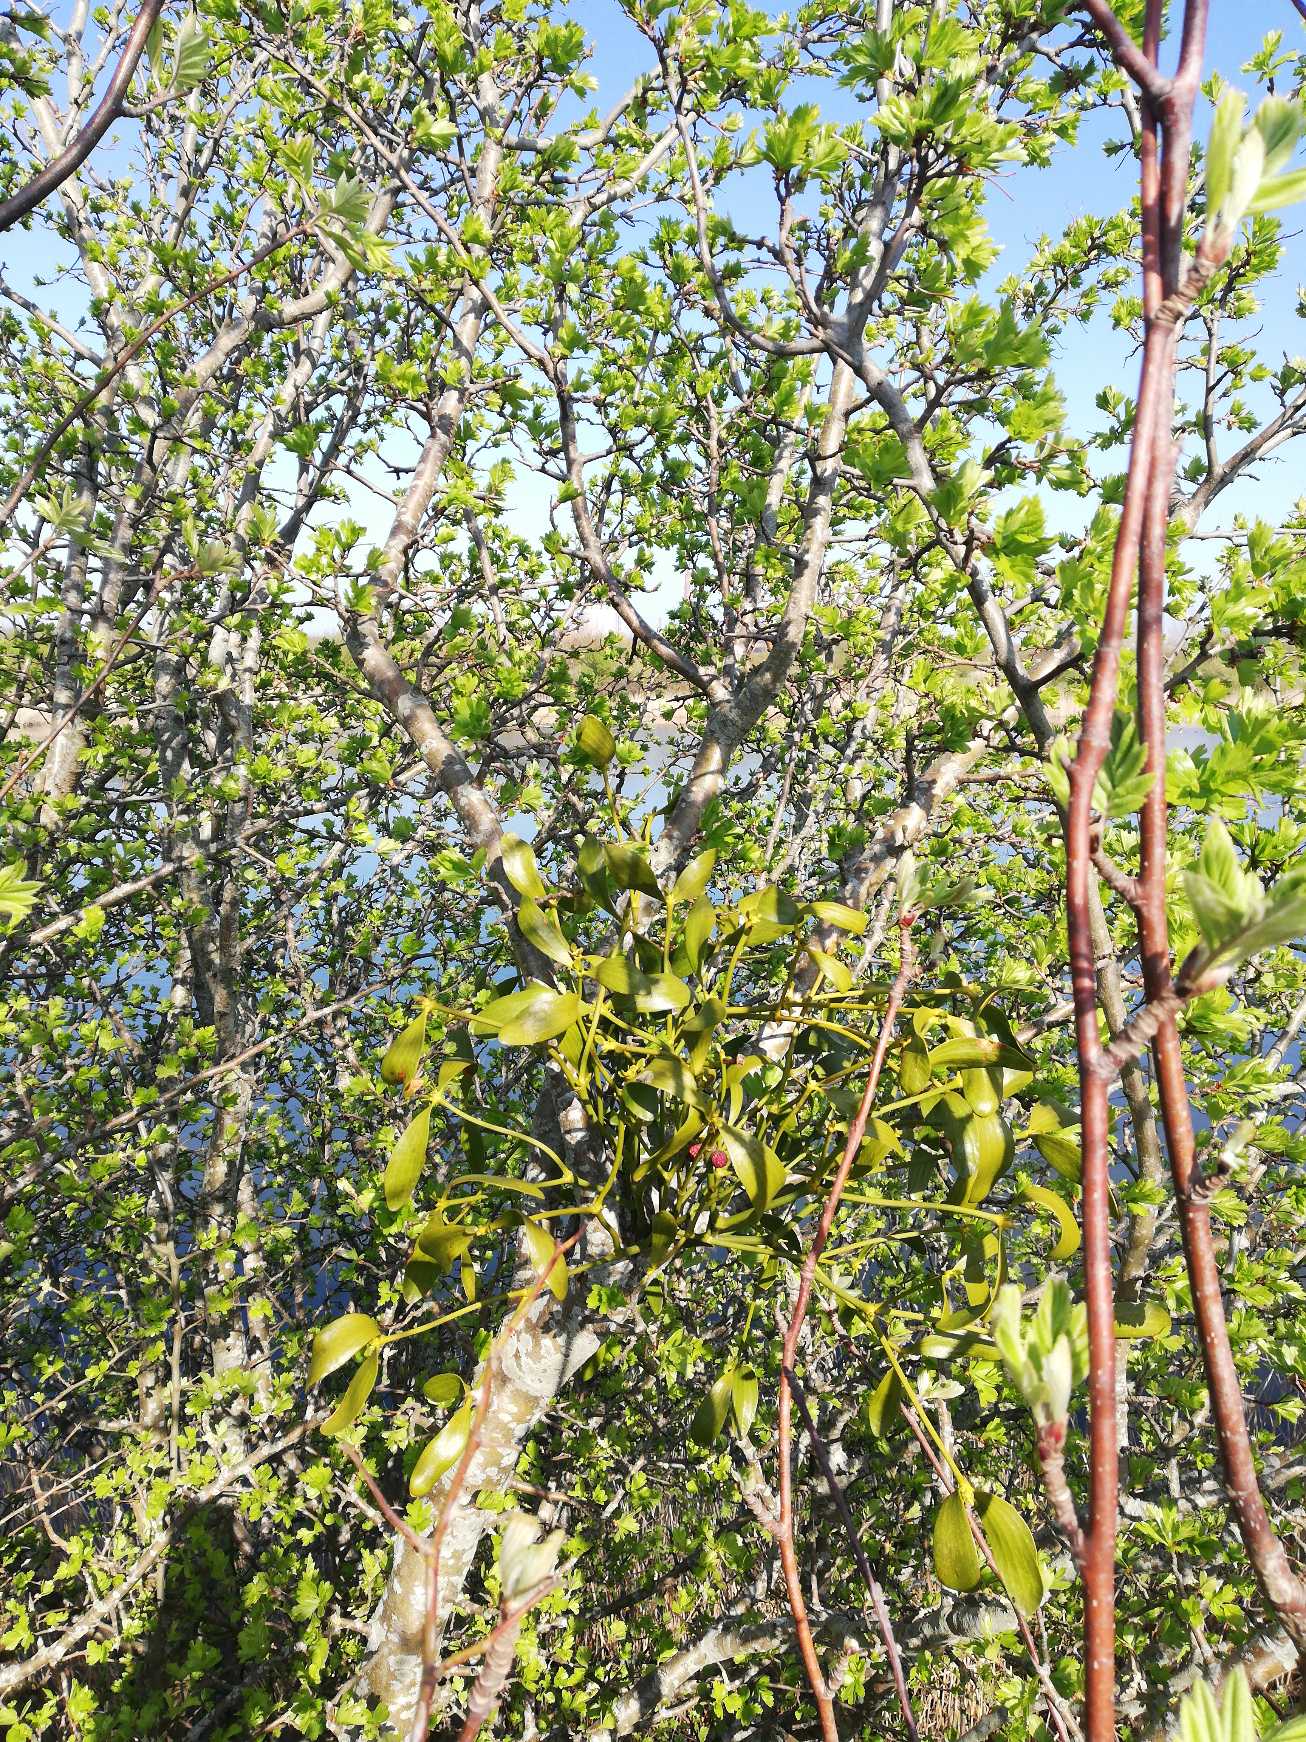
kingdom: Plantae
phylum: Tracheophyta
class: Magnoliopsida
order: Santalales
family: Viscaceae
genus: Viscum
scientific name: Viscum album
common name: Mistelten
